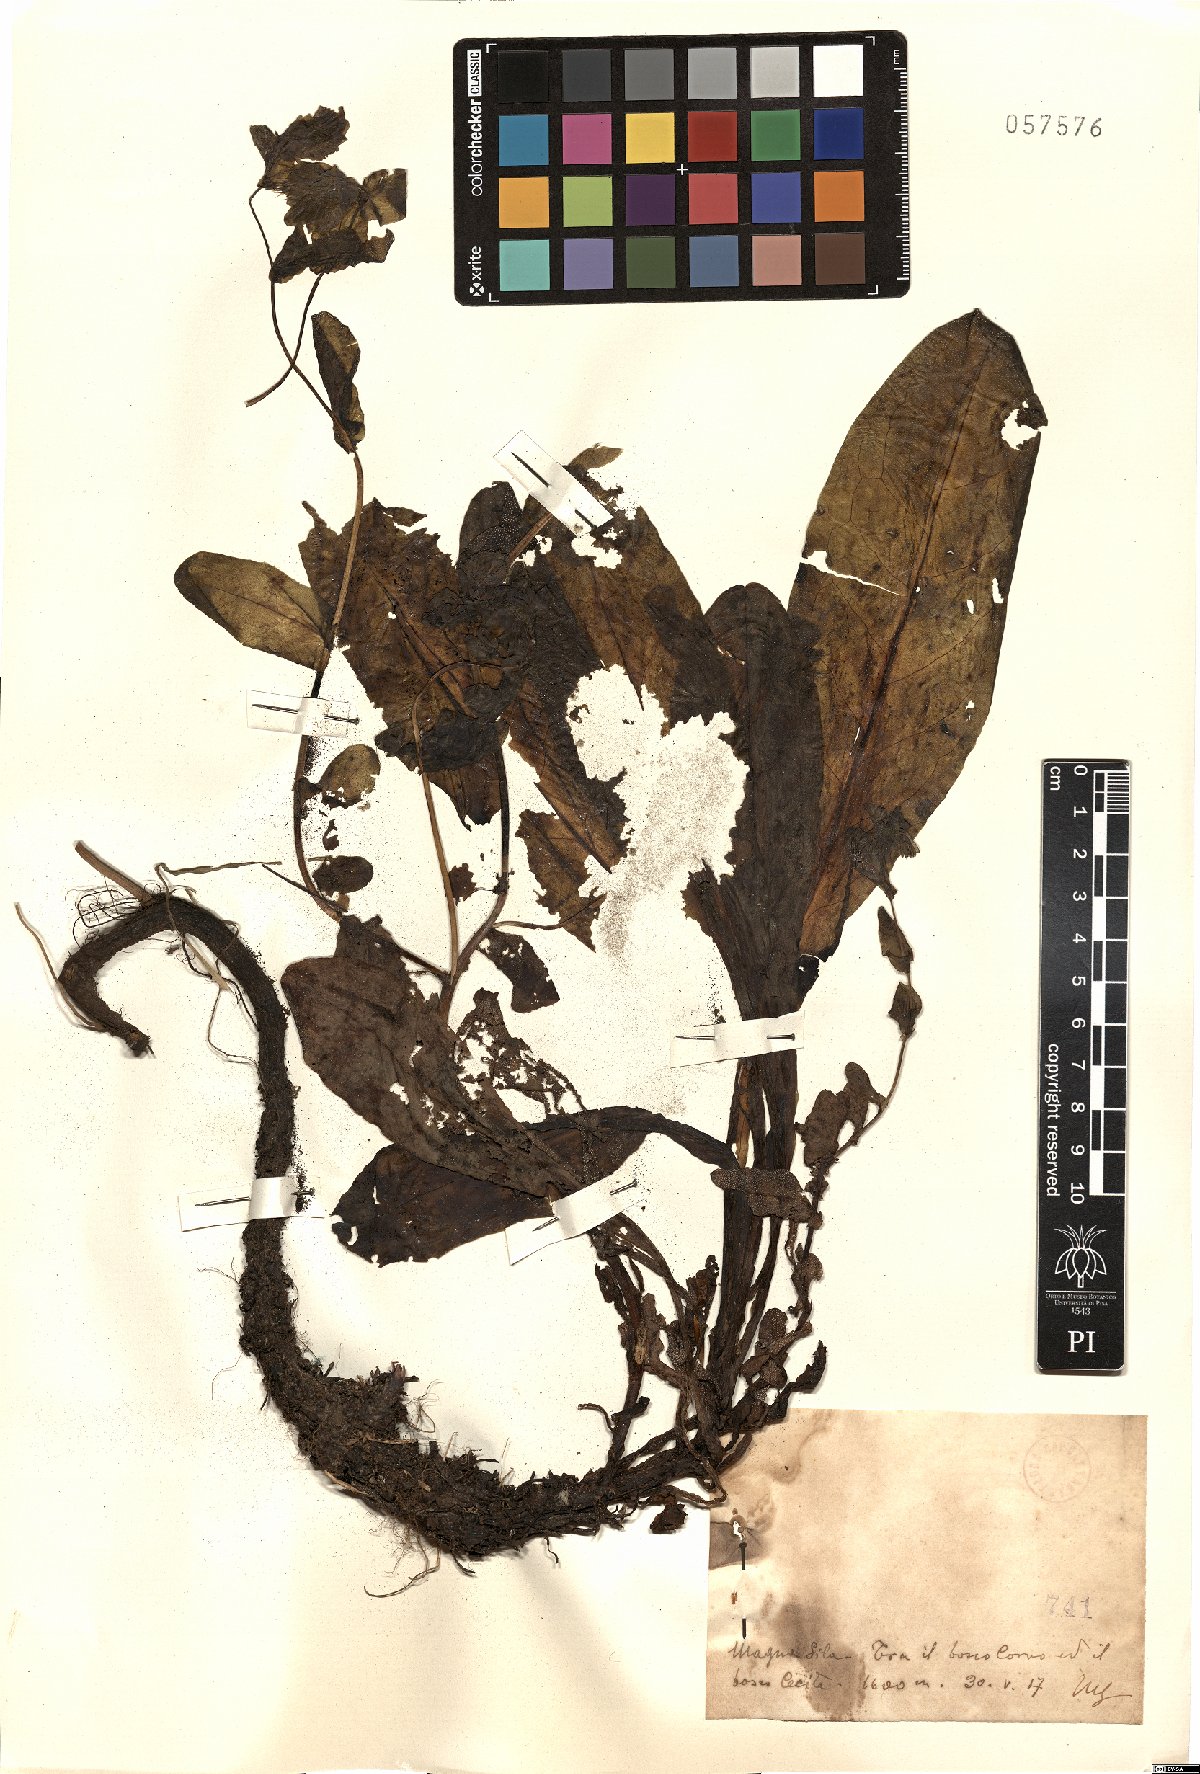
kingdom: Plantae
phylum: Tracheophyta
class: Magnoliopsida
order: Boraginales
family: Boraginaceae
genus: Cerinthe
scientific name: Cerinthe
